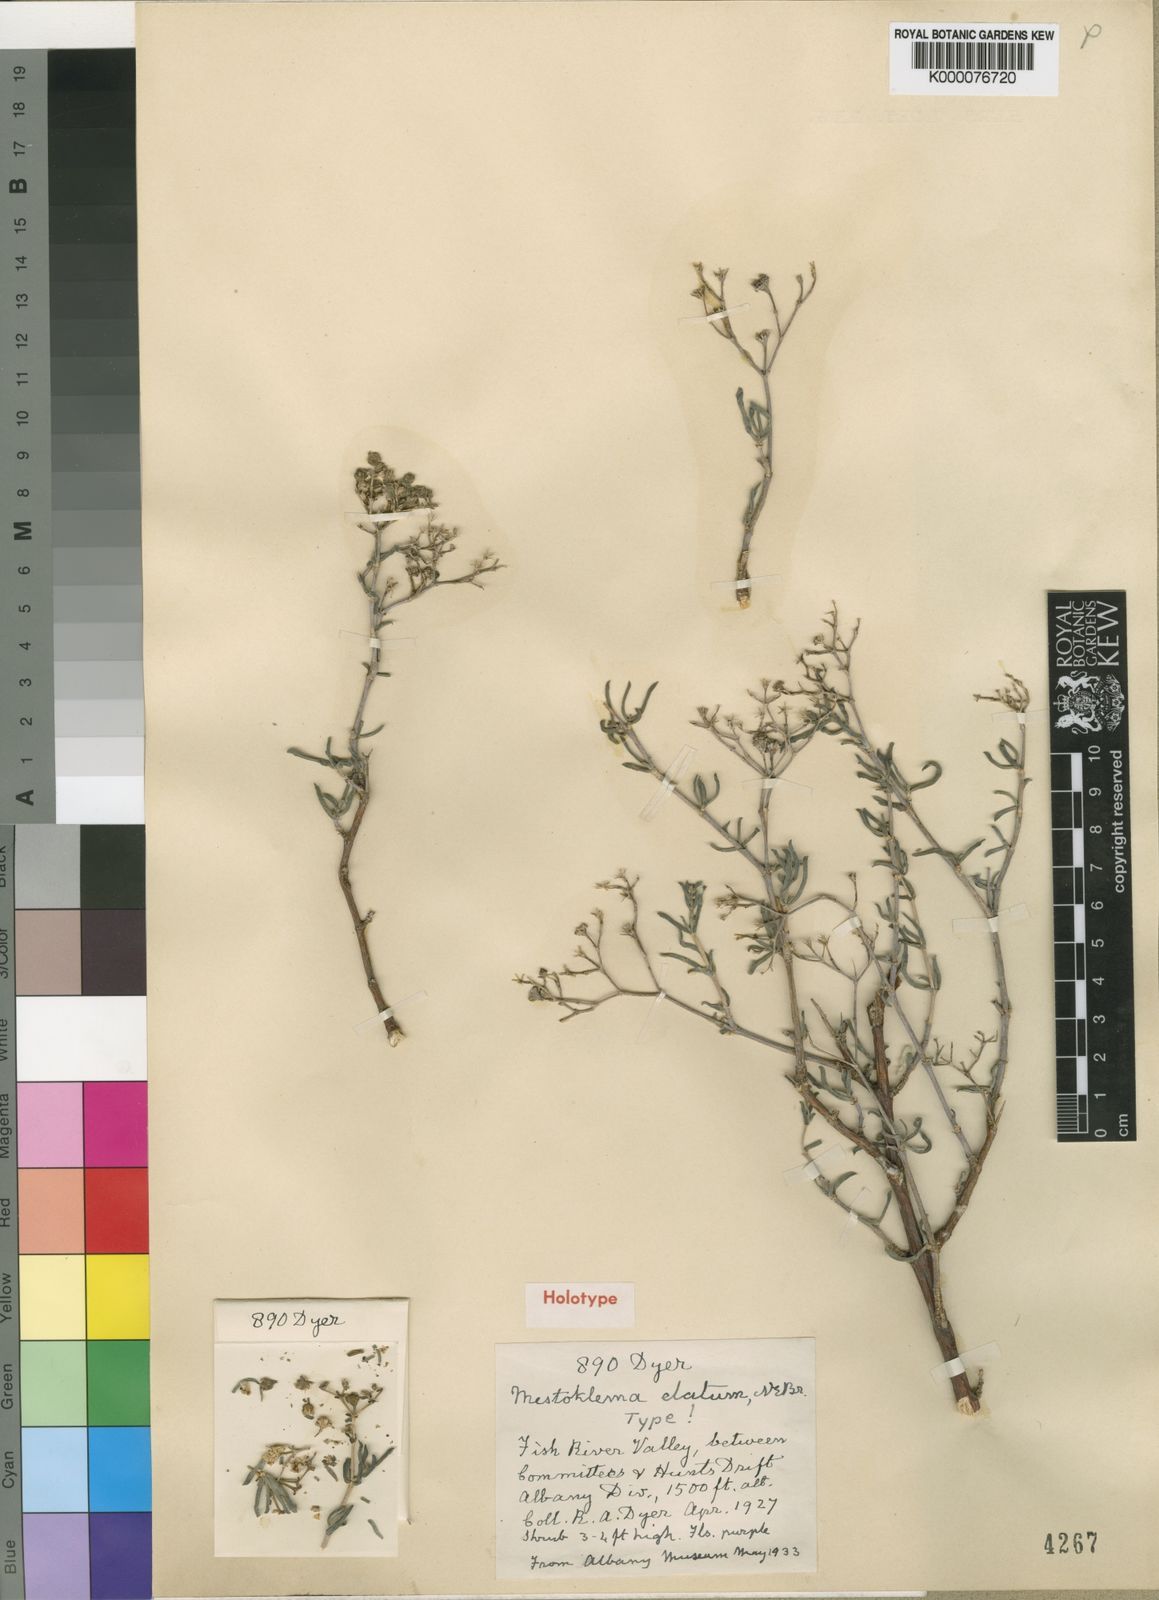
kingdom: Plantae
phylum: Tracheophyta
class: Magnoliopsida
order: Caryophyllales
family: Aizoaceae
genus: Mestoklema
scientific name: Mestoklema
